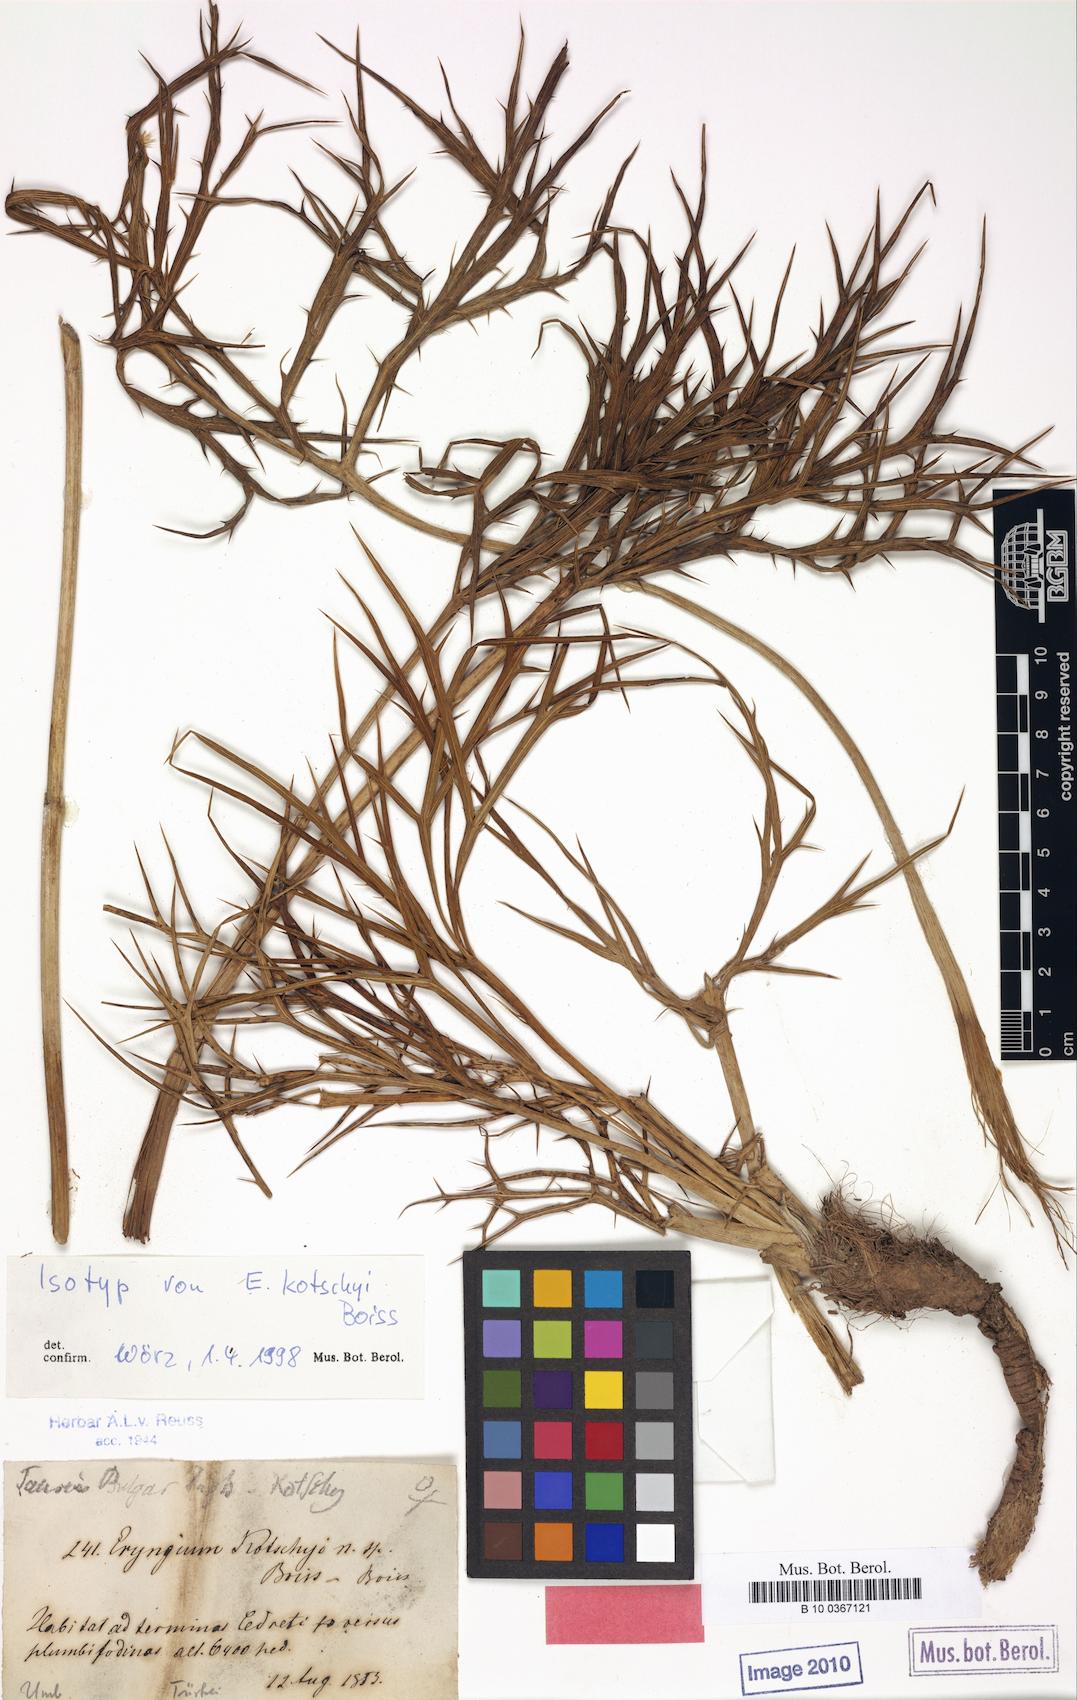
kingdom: Plantae
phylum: Tracheophyta
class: Magnoliopsida
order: Apiales
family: Apiaceae
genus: Eryngium
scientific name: Eryngium kotschyi
